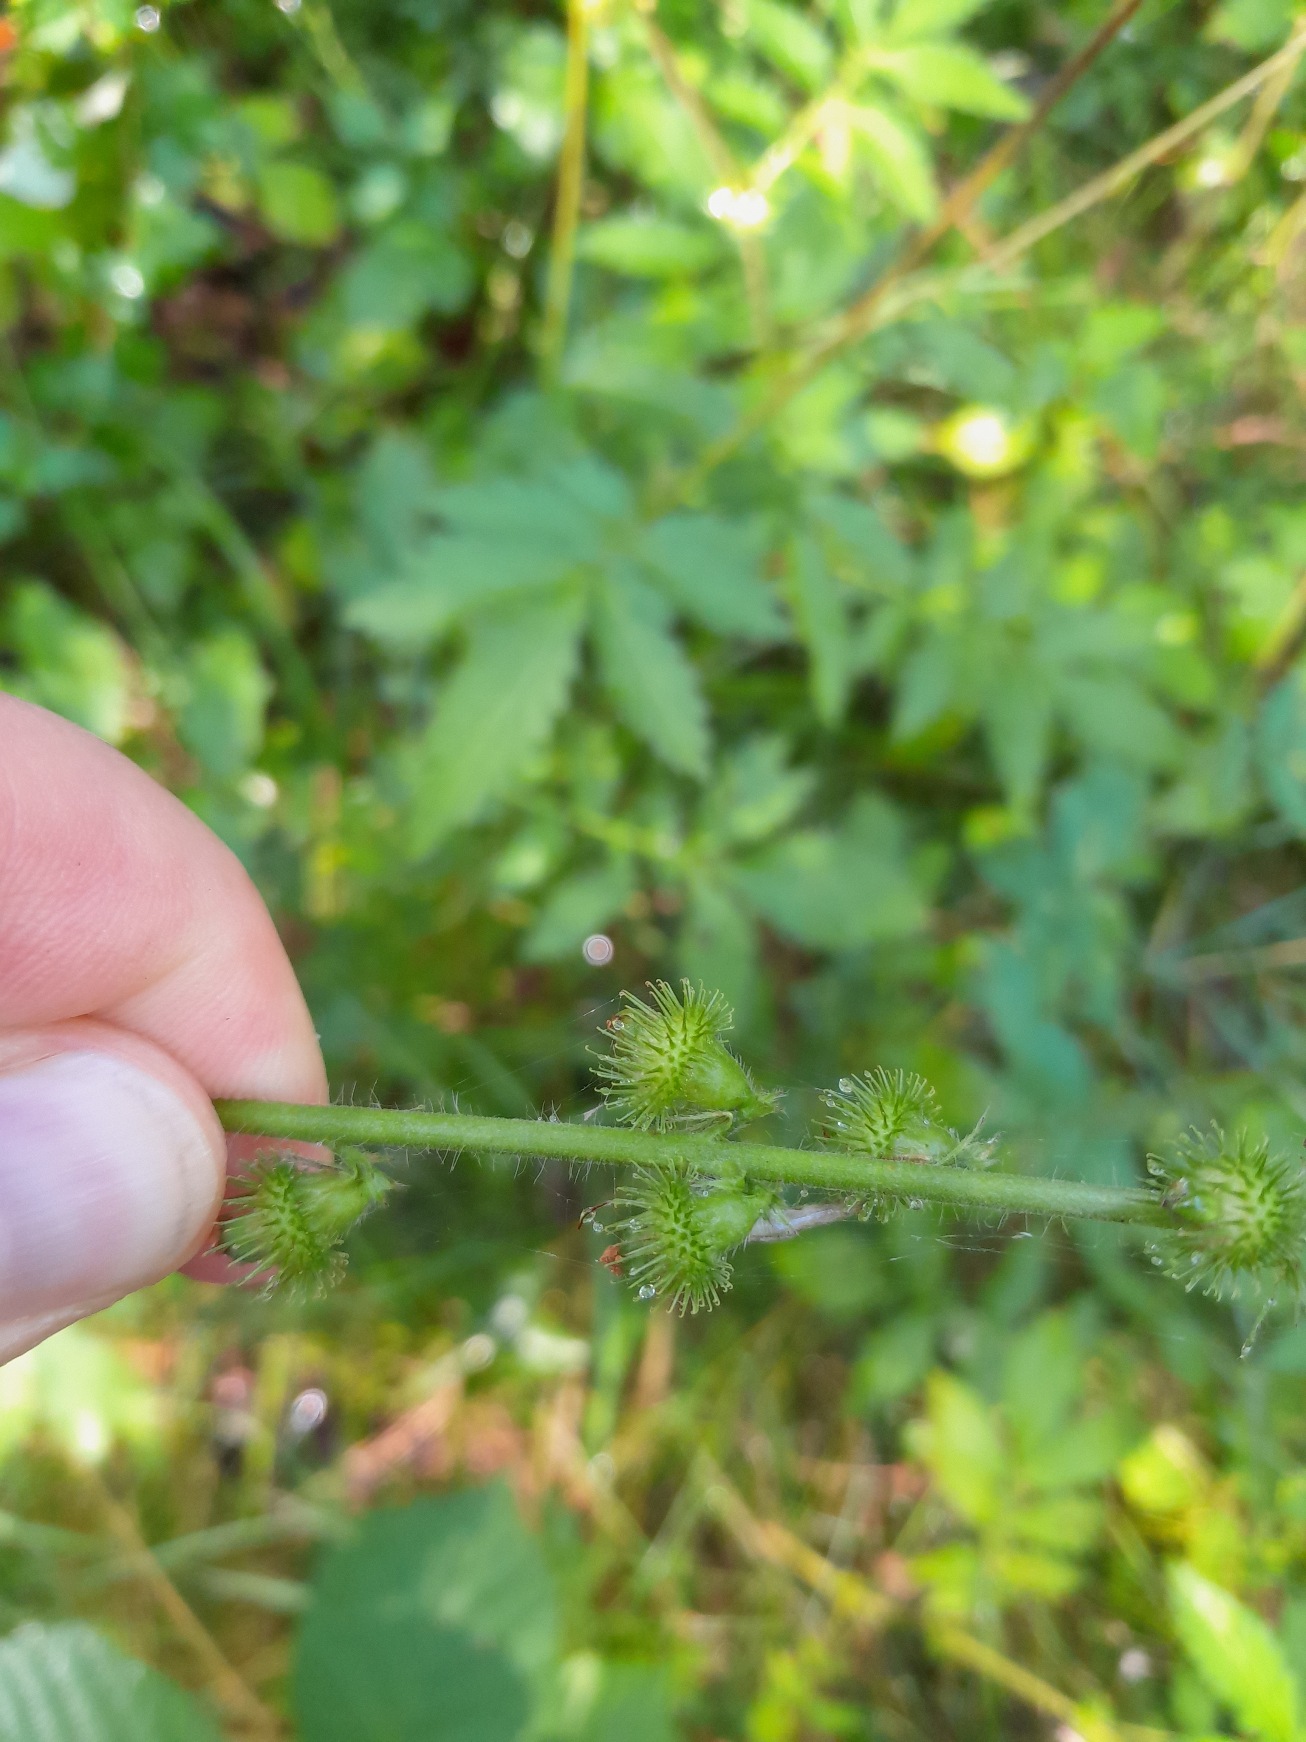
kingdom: Plantae
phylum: Tracheophyta
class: Magnoliopsida
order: Rosales
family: Rosaceae
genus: Agrimonia
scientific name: Agrimonia procera
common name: Vellugtende agermåne
